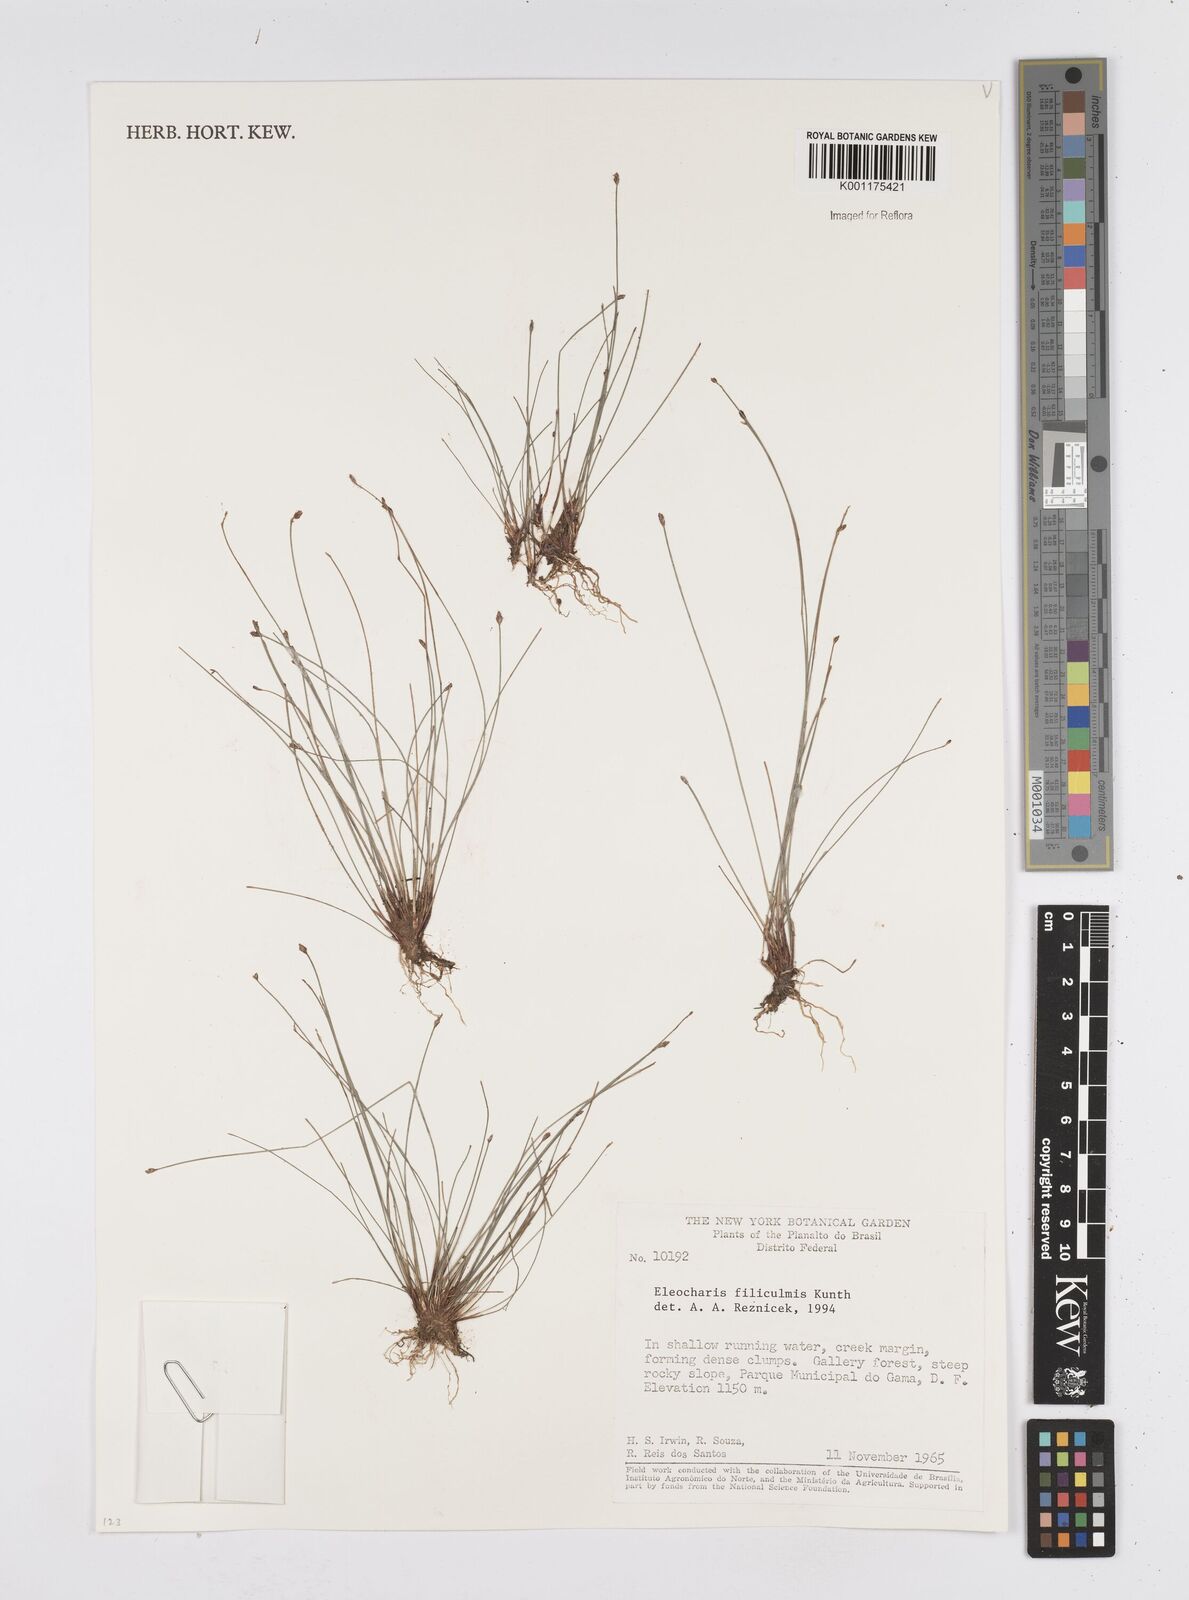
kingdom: Plantae
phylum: Tracheophyta
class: Liliopsida
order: Poales
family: Cyperaceae
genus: Eleocharis
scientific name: Eleocharis filiculmis
